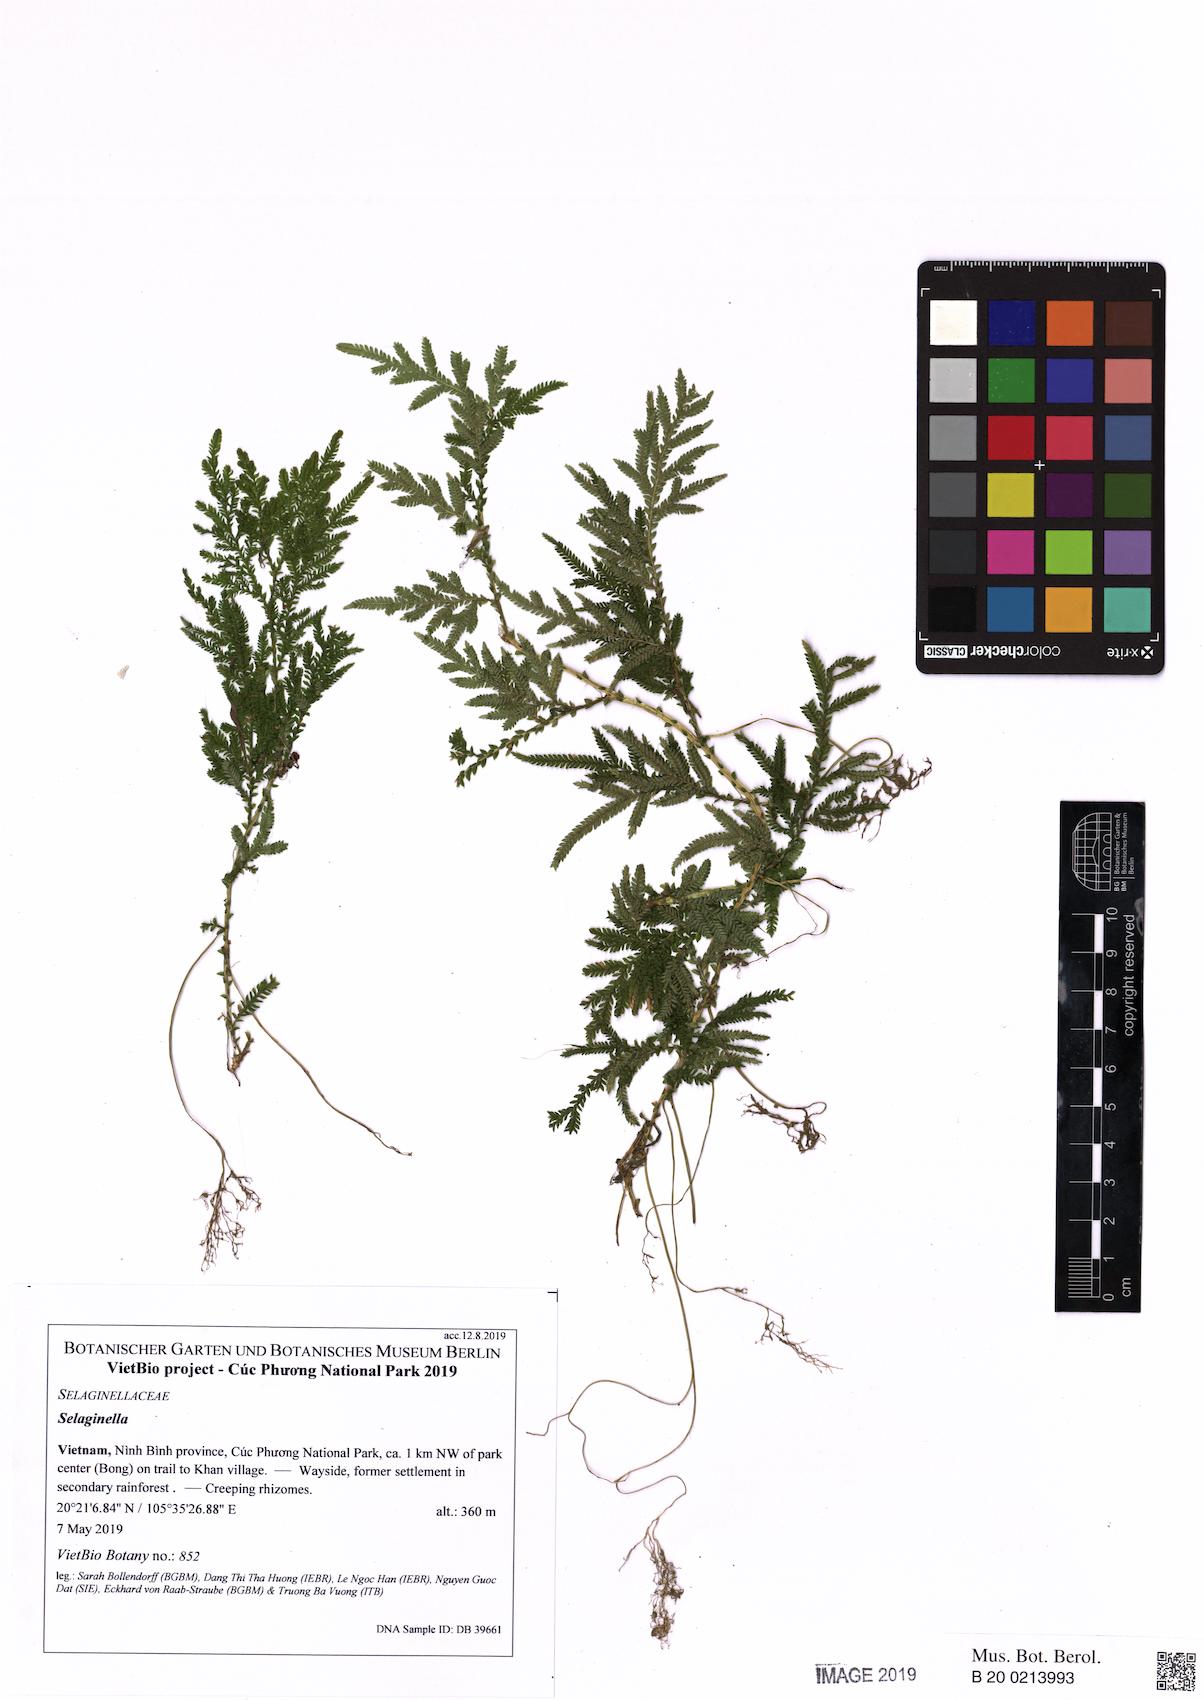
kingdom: Plantae
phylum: Tracheophyta
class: Lycopodiopsida
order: Selaginellales
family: Selaginellaceae
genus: Selaginella
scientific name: Selaginella
